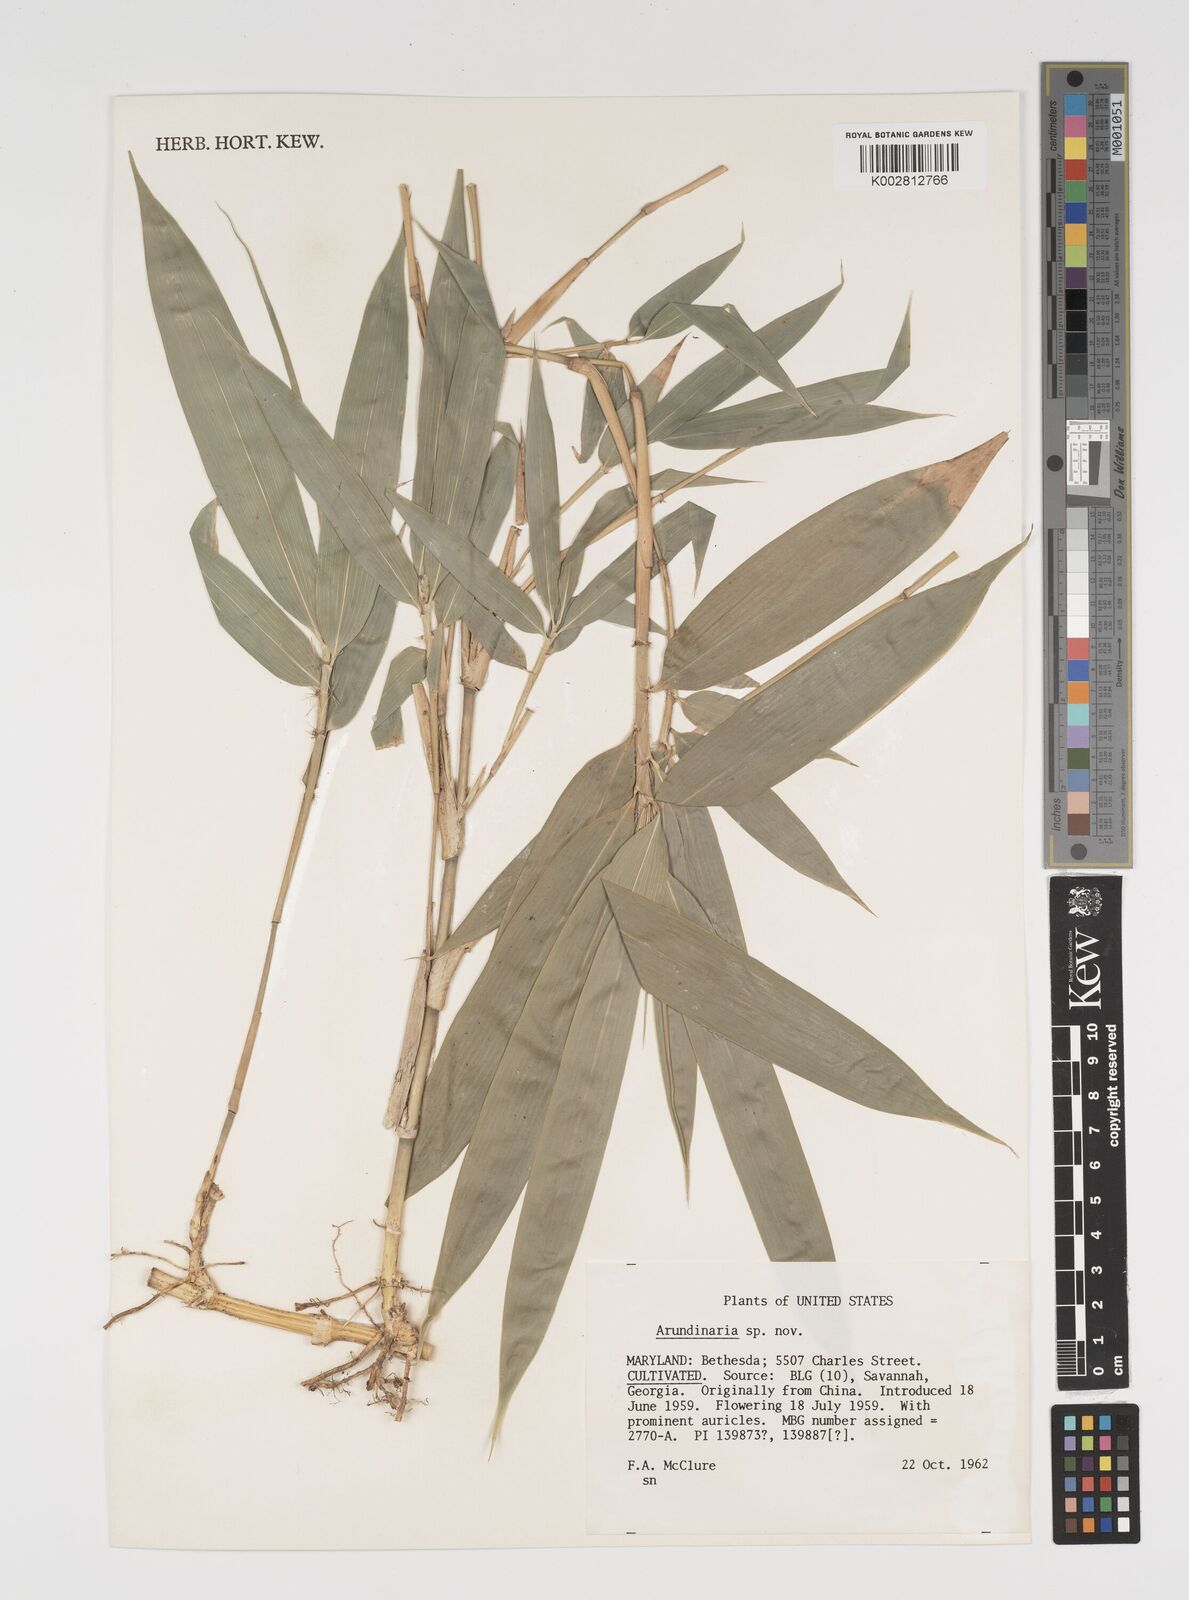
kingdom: Plantae
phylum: Tracheophyta
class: Liliopsida
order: Poales
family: Poaceae
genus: Arundinaria
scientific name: Arundinaria
